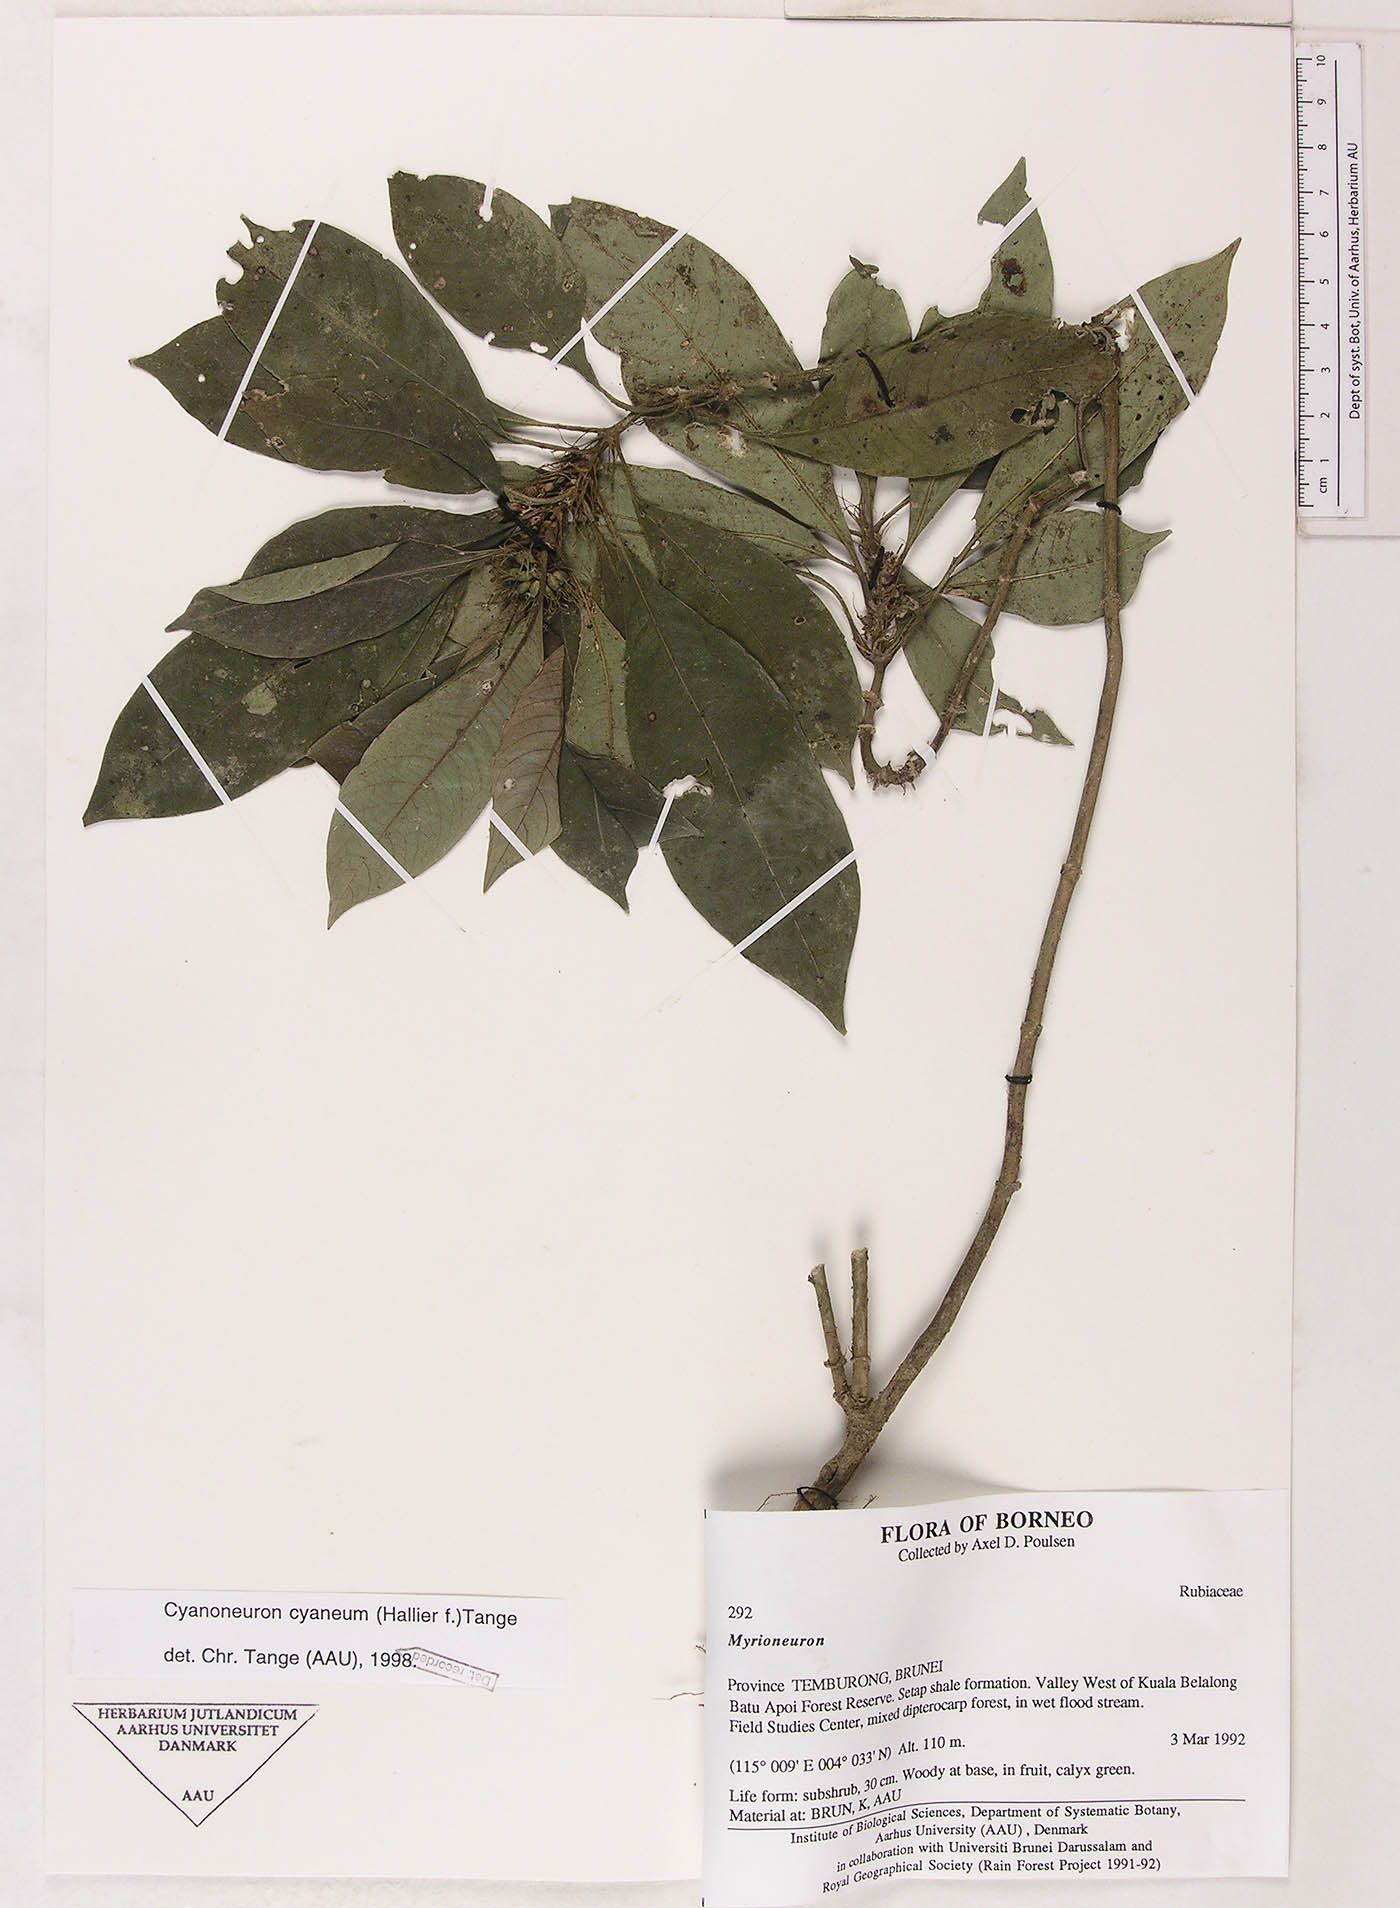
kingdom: Plantae
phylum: Tracheophyta
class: Magnoliopsida
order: Gentianales
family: Rubiaceae
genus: Cyanoneuron
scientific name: Cyanoneuron cyaneum
